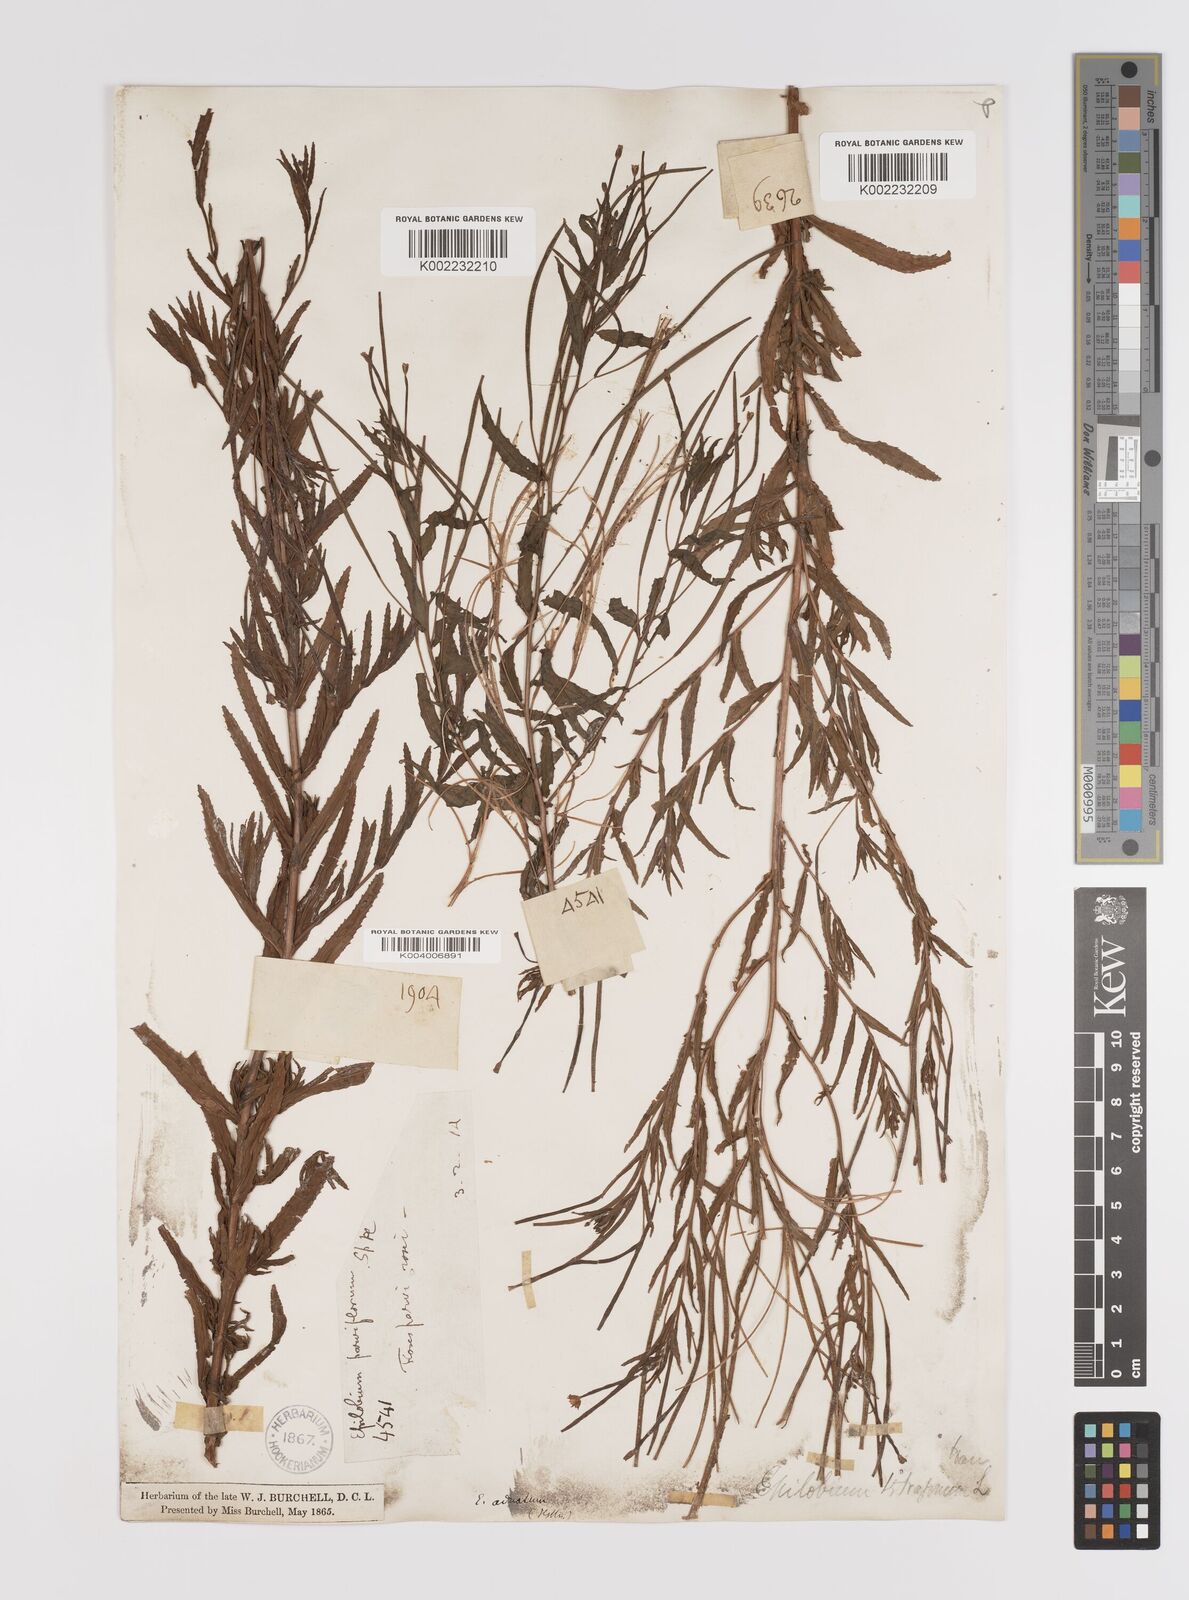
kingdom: Plantae
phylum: Tracheophyta
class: Magnoliopsida
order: Myrtales
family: Onagraceae
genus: Epilobium
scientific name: Epilobium tetragonum
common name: Square-stemmed willowherb
